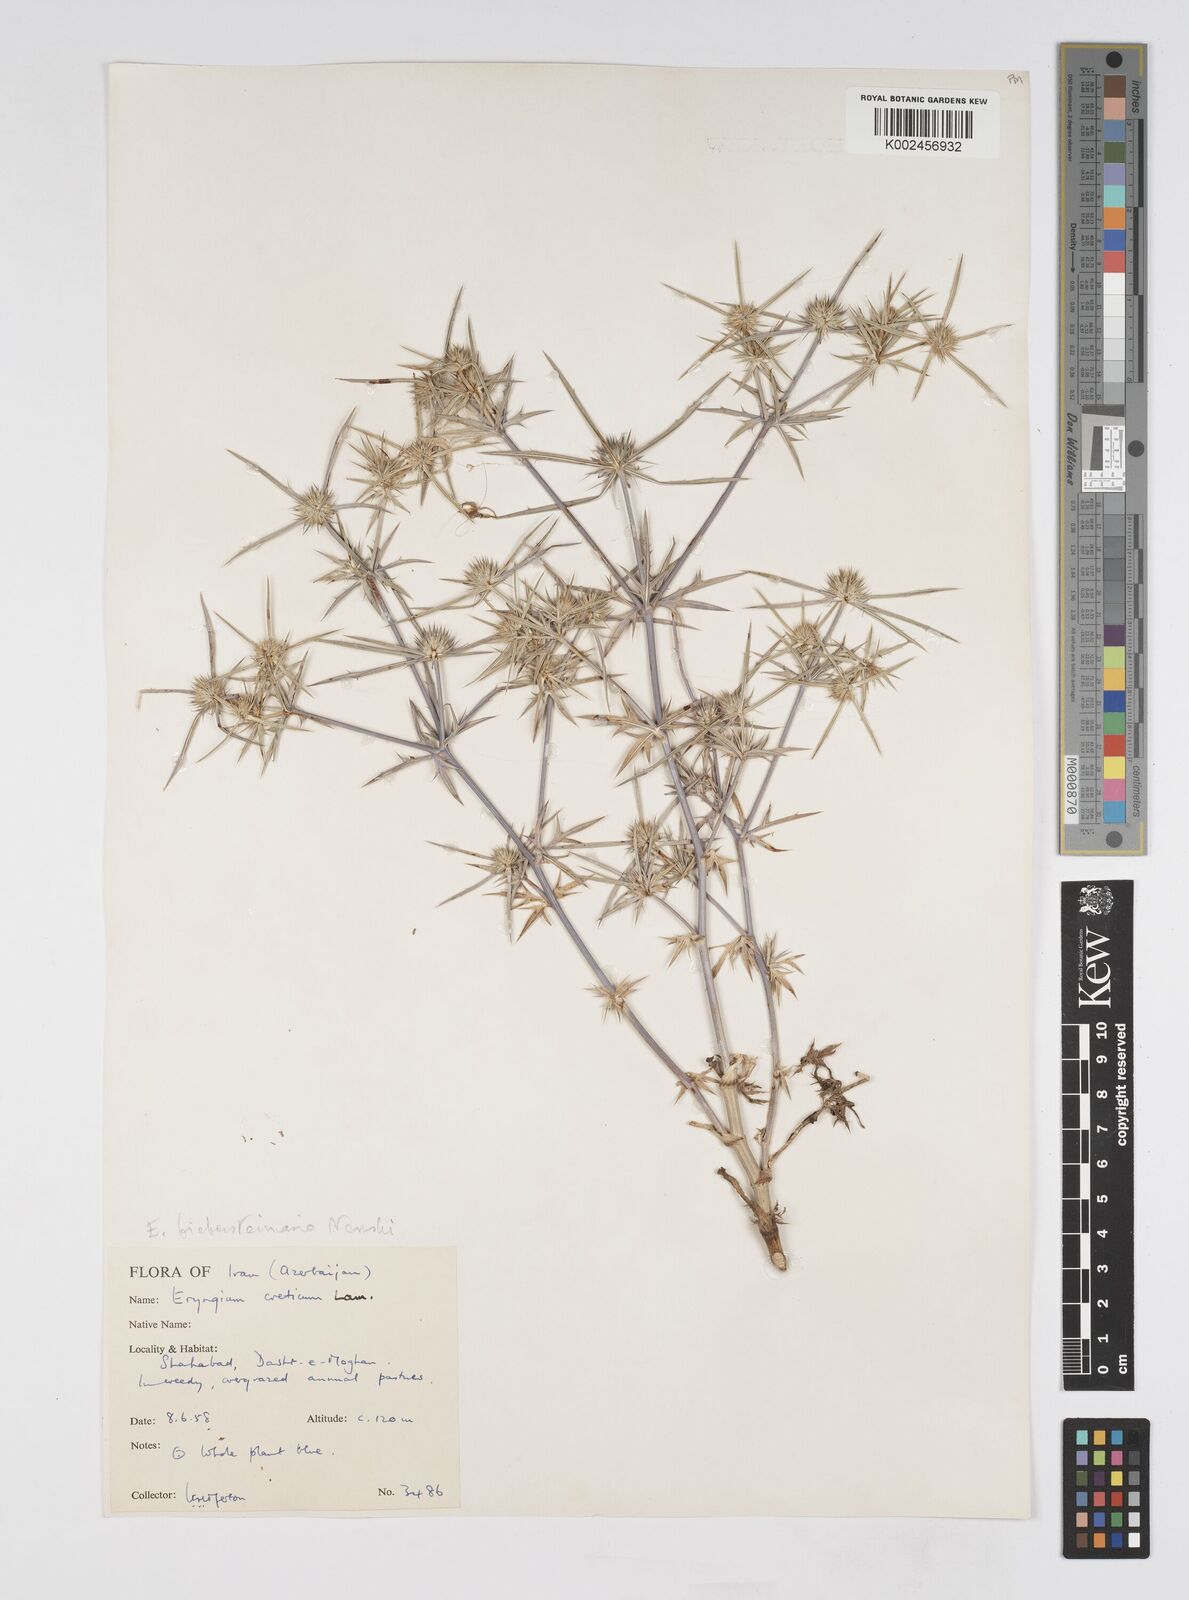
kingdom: Plantae
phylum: Tracheophyta
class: Magnoliopsida
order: Apiales
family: Apiaceae
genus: Eryngium
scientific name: Eryngium caeruleum
